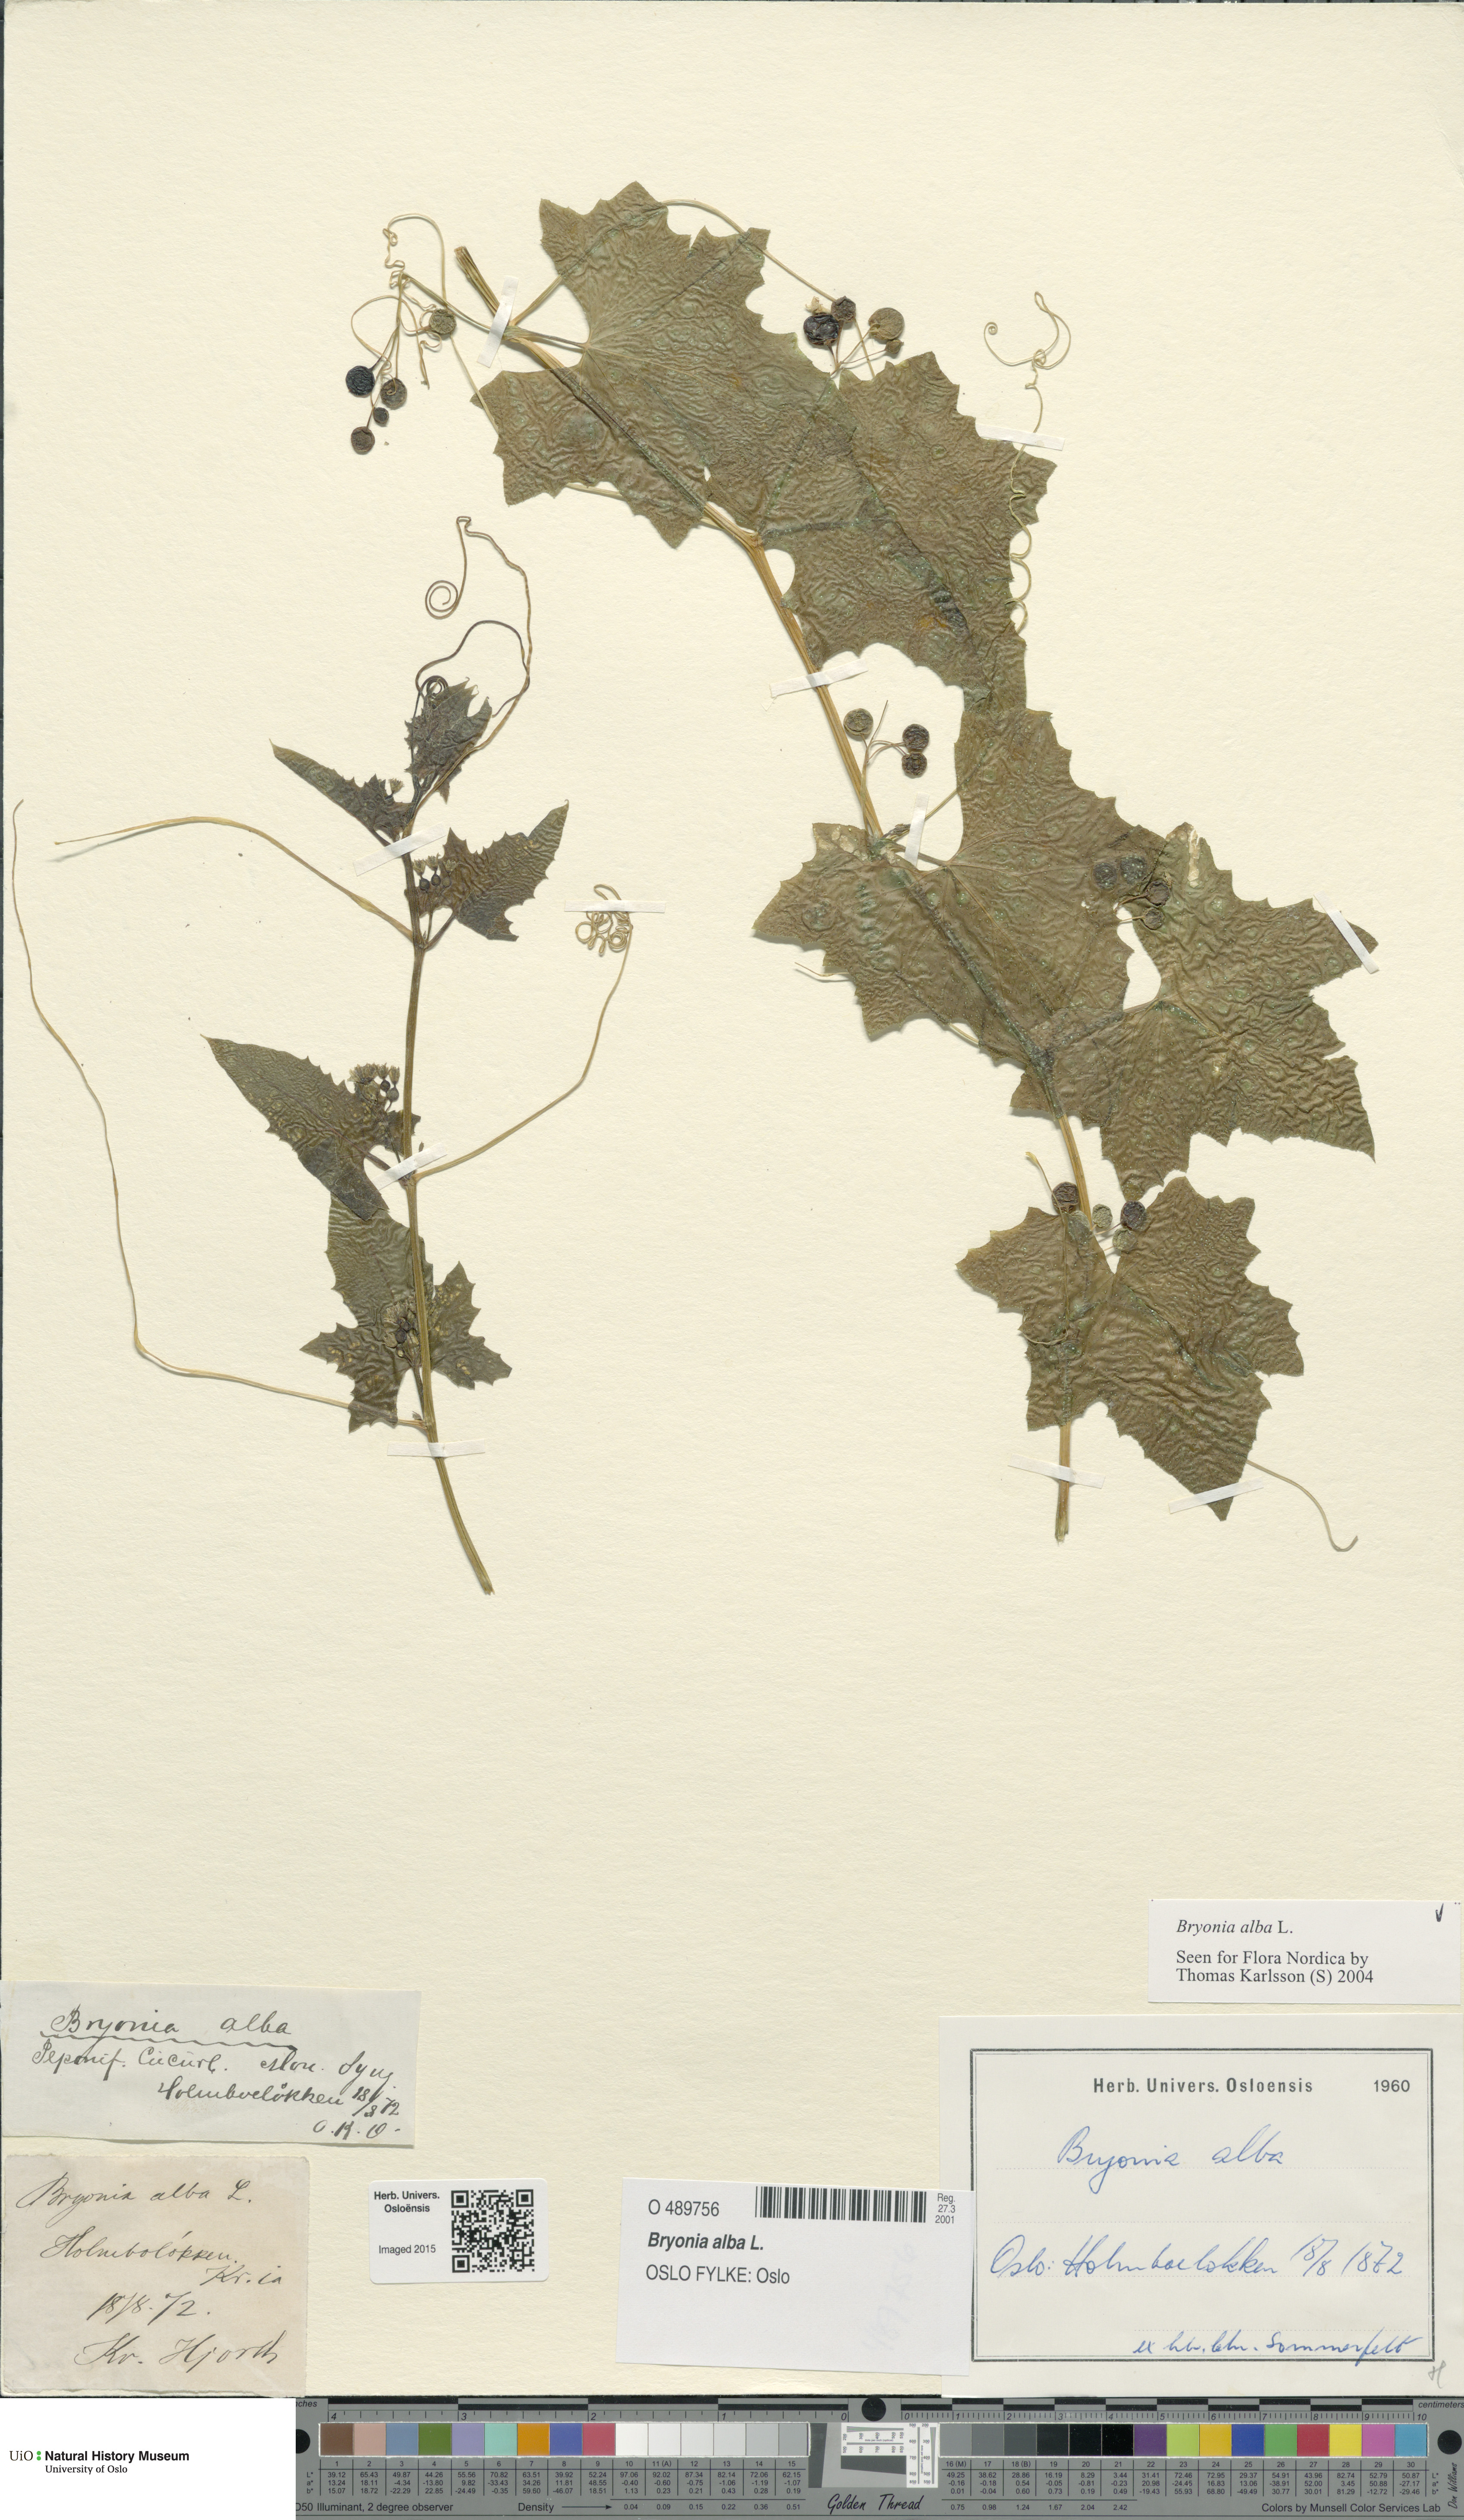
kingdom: Plantae
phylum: Tracheophyta
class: Magnoliopsida
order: Cucurbitales
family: Cucurbitaceae
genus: Bryonia
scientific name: Bryonia alba
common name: White bryony
